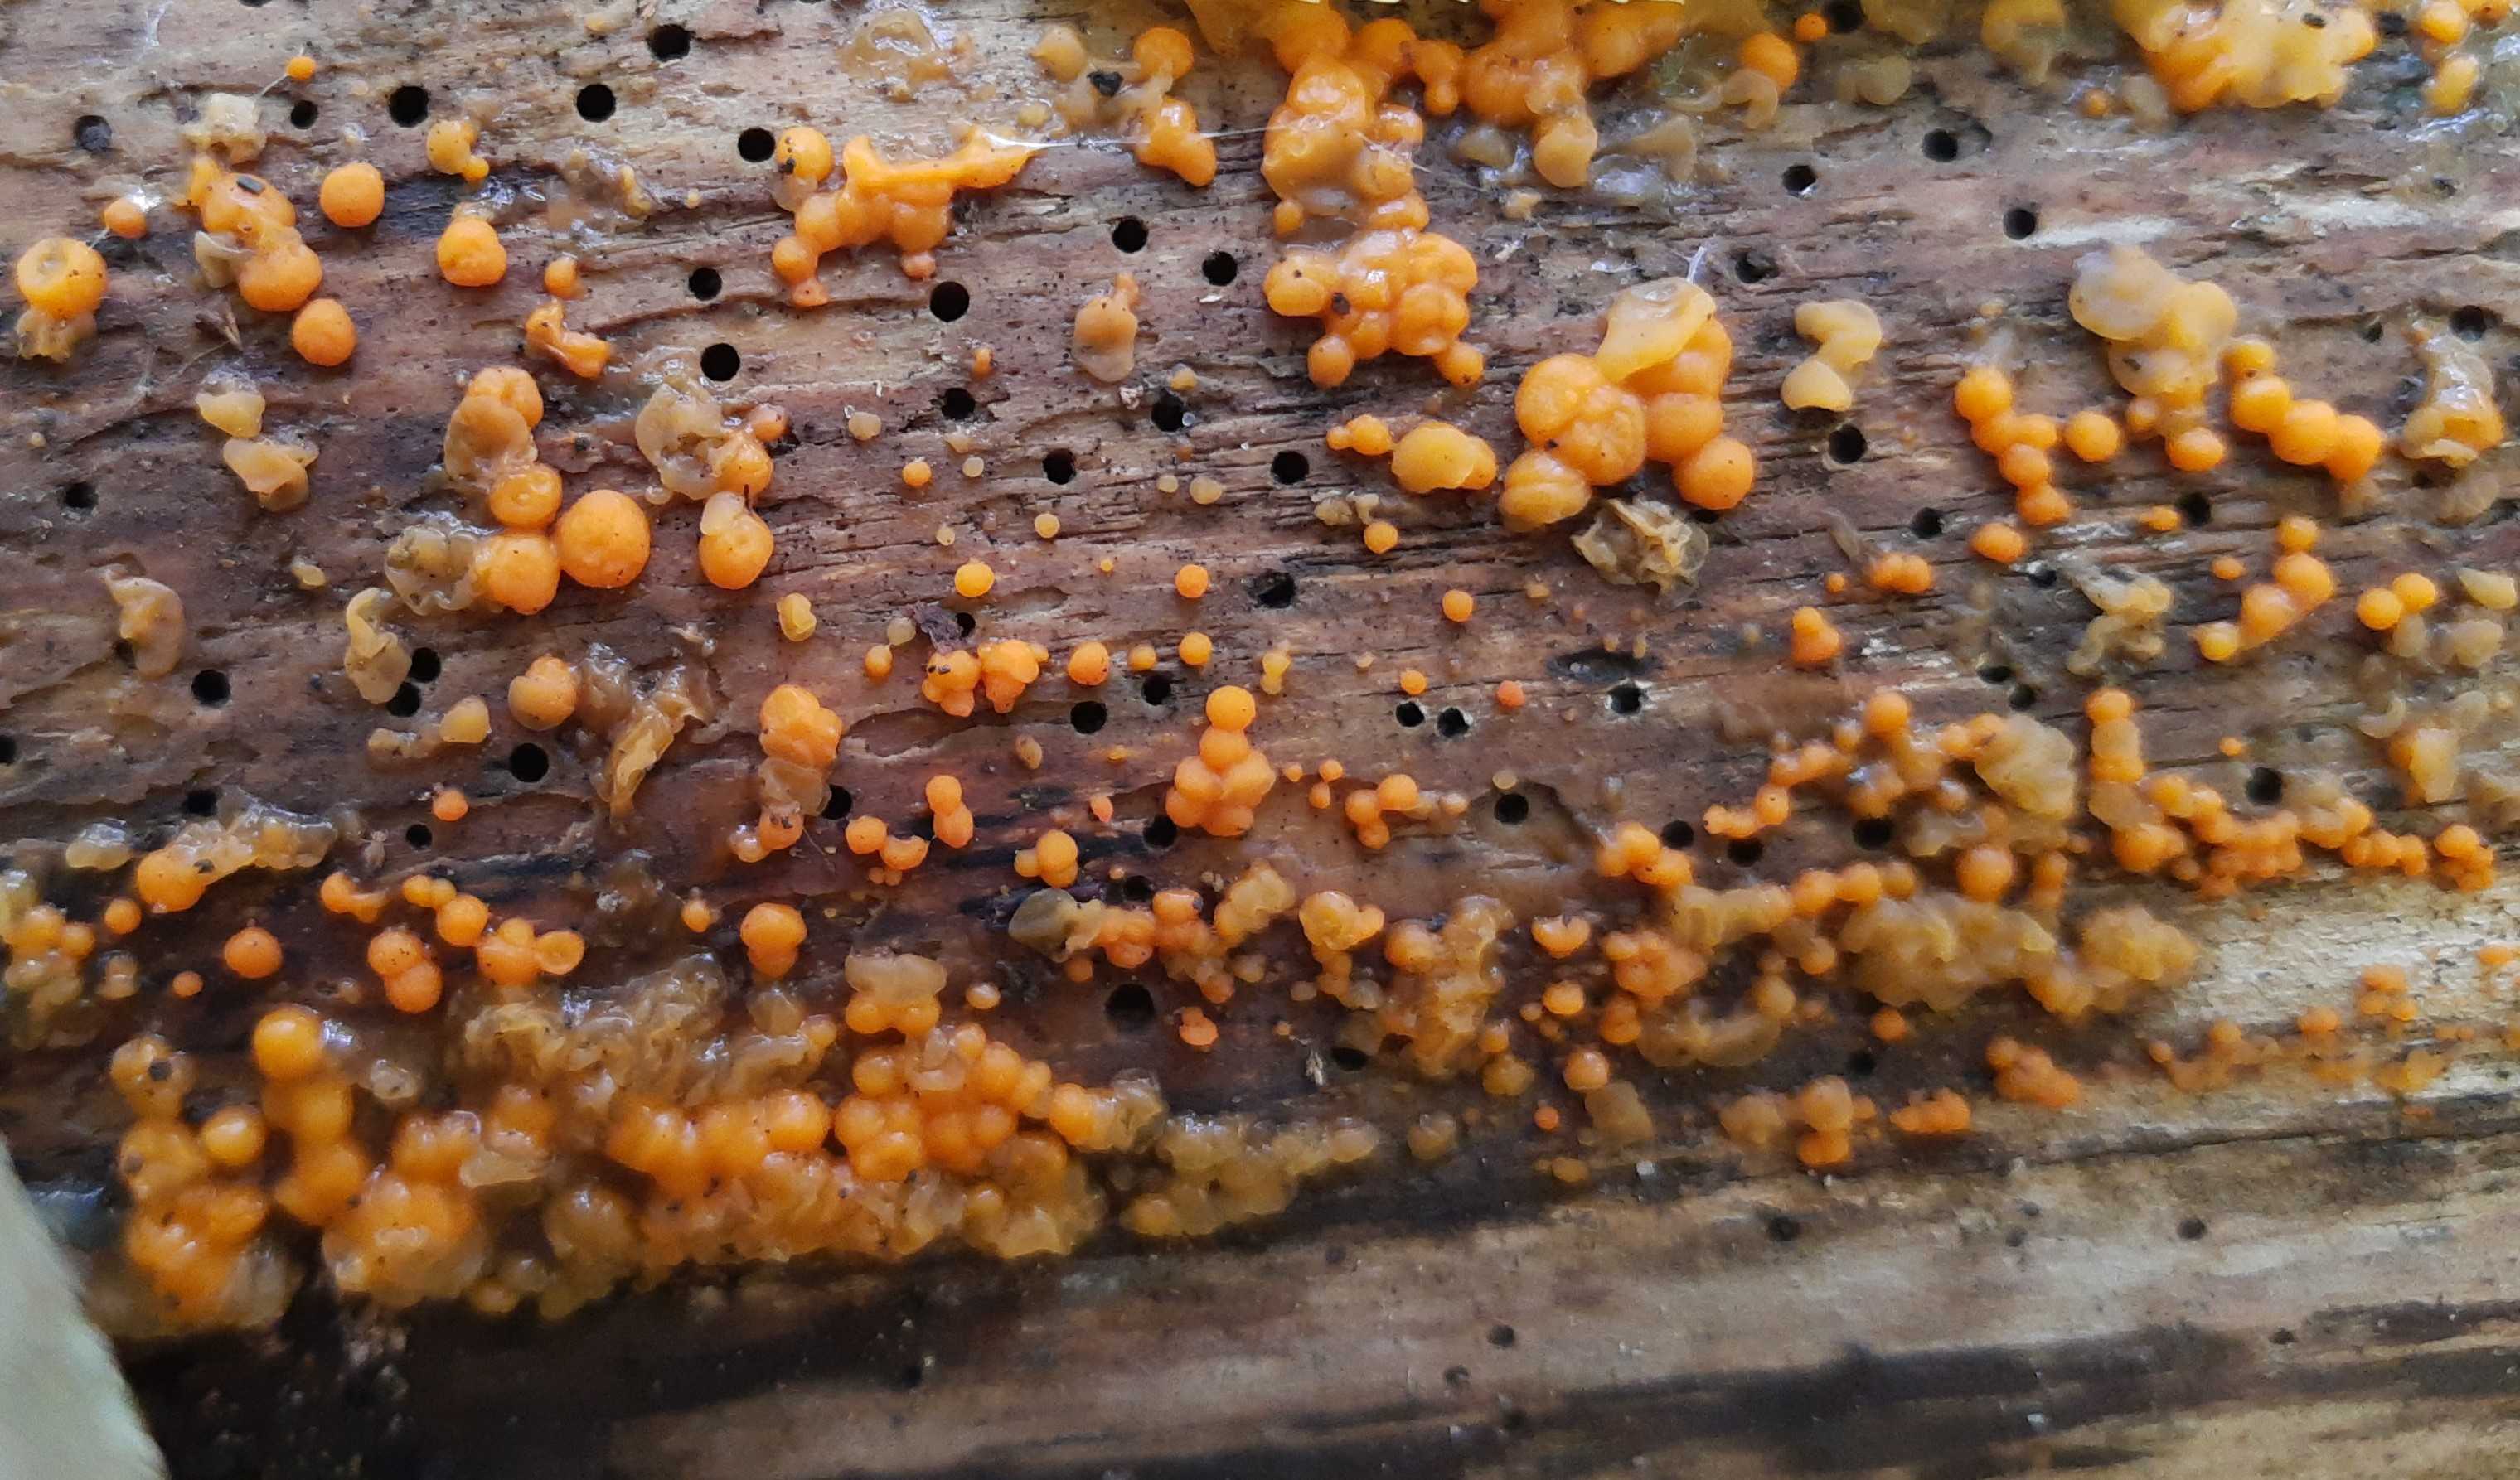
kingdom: Fungi
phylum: Basidiomycota
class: Dacrymycetes
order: Dacrymycetales
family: Dacrymycetaceae
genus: Dacrymyces
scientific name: Dacrymyces stillatus
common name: almindelig tåresvamp
